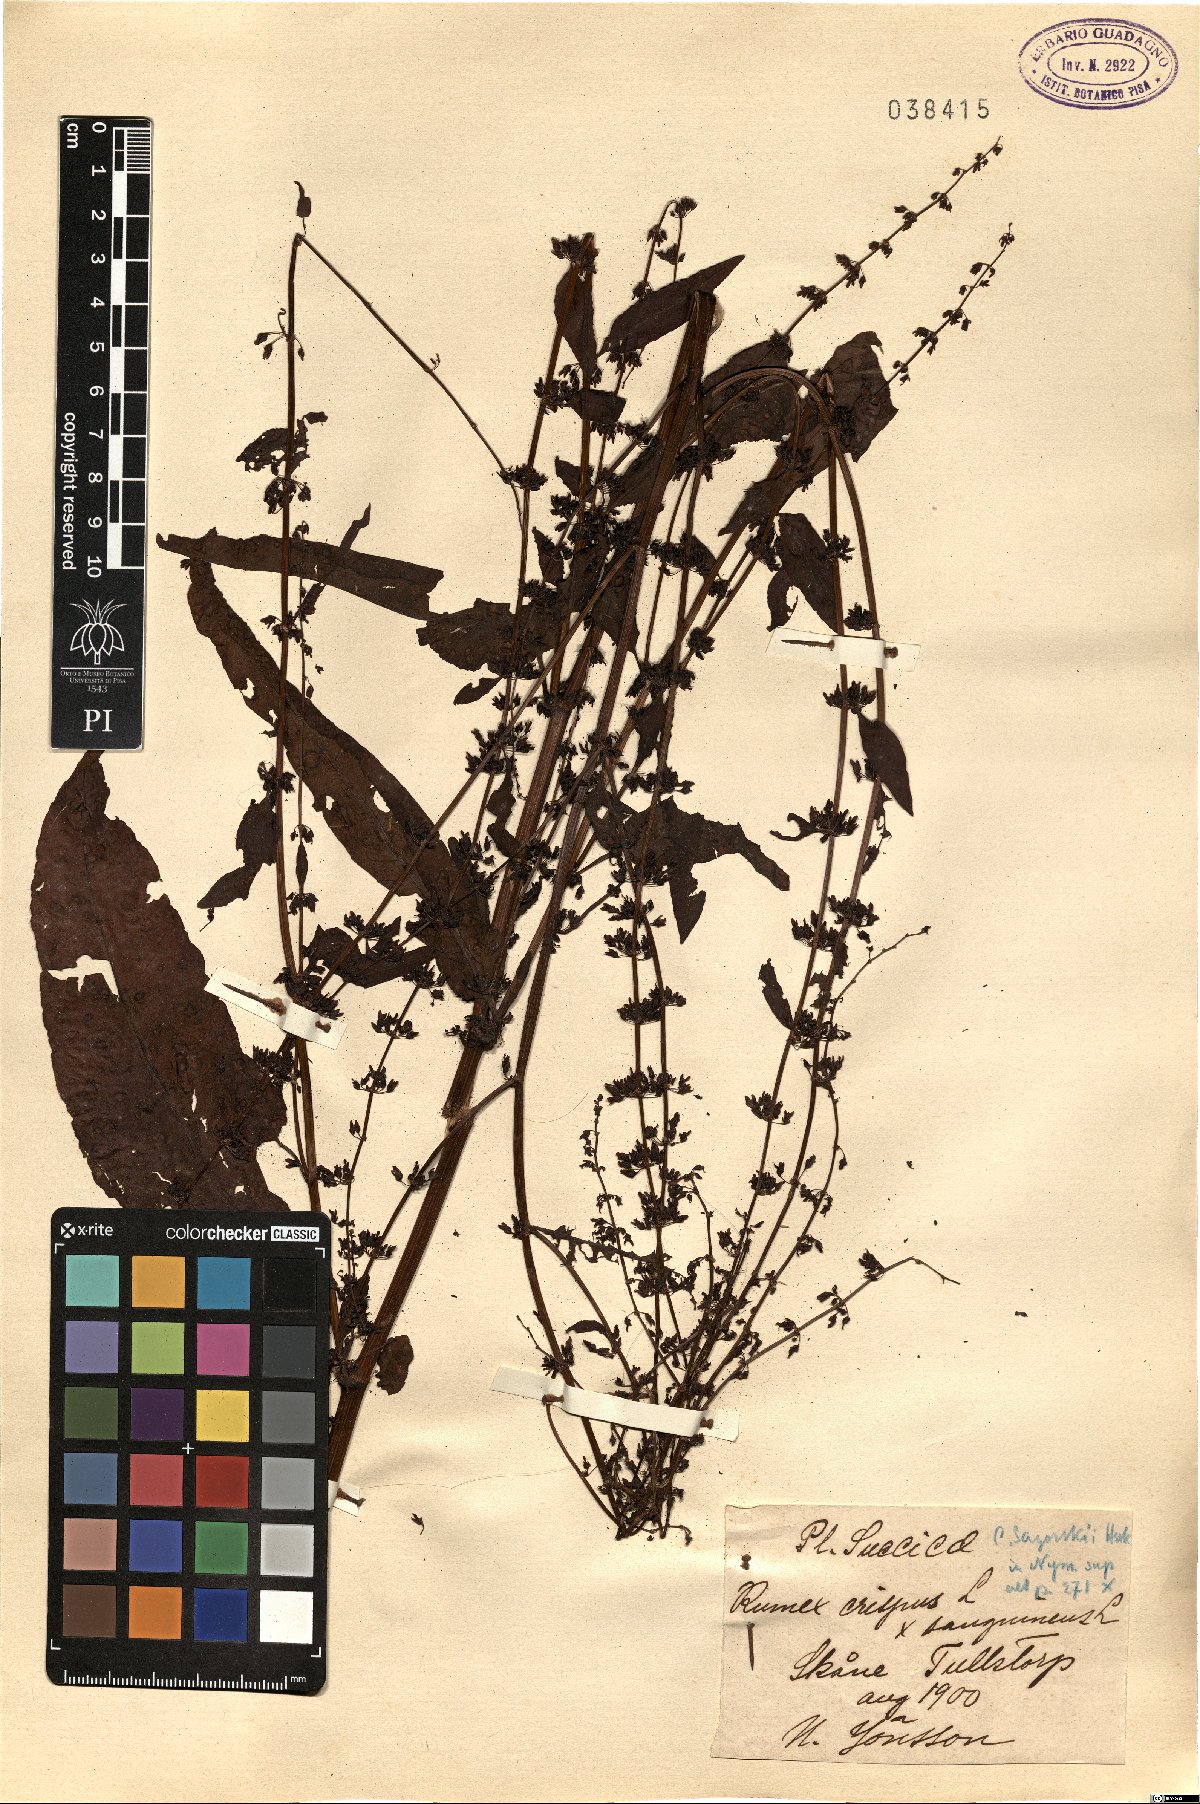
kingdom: Plantae
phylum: Tracheophyta
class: Magnoliopsida
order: Caryophyllales
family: Polygonaceae
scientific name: Polygonaceae
